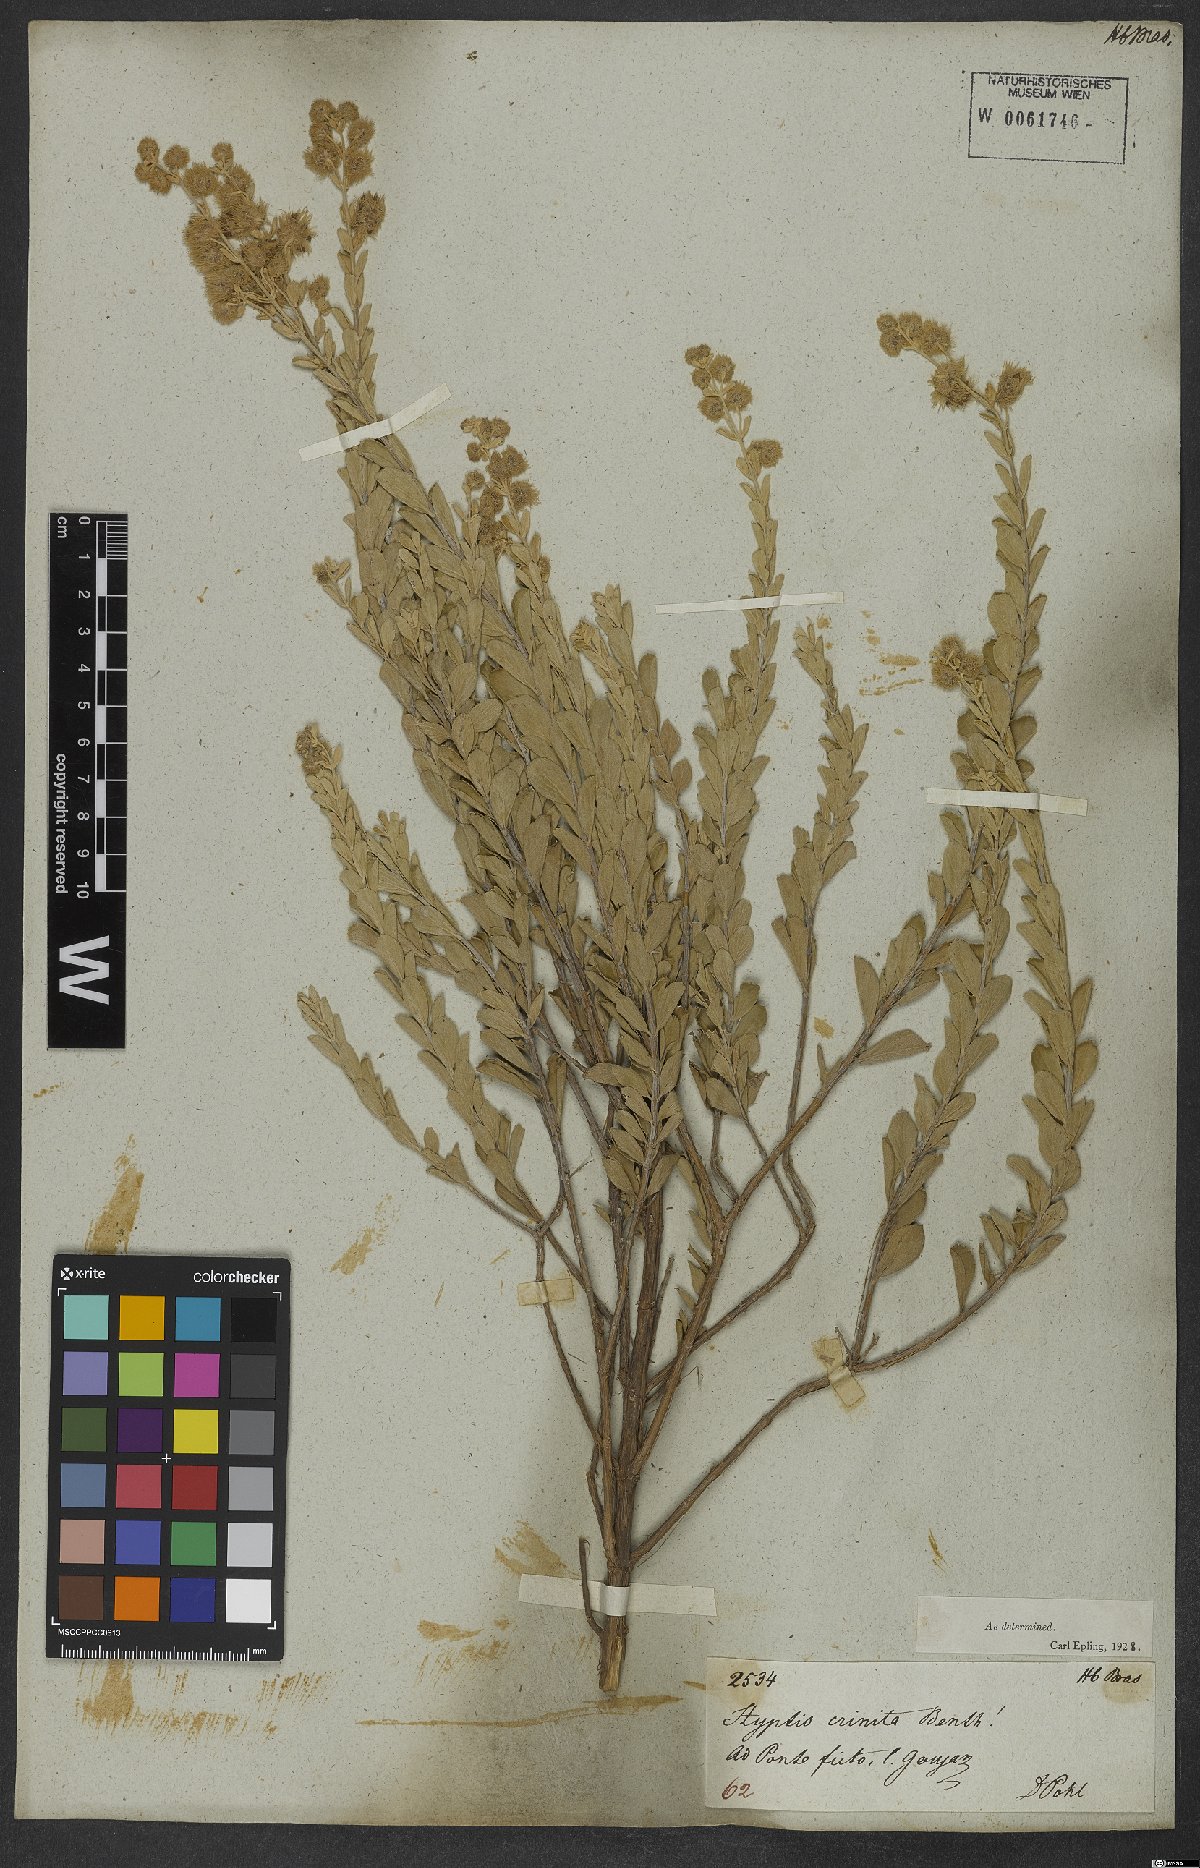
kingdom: Plantae
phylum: Tracheophyta
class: Magnoliopsida
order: Lamiales
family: Lamiaceae
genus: Medusantha
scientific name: Medusantha crinita
